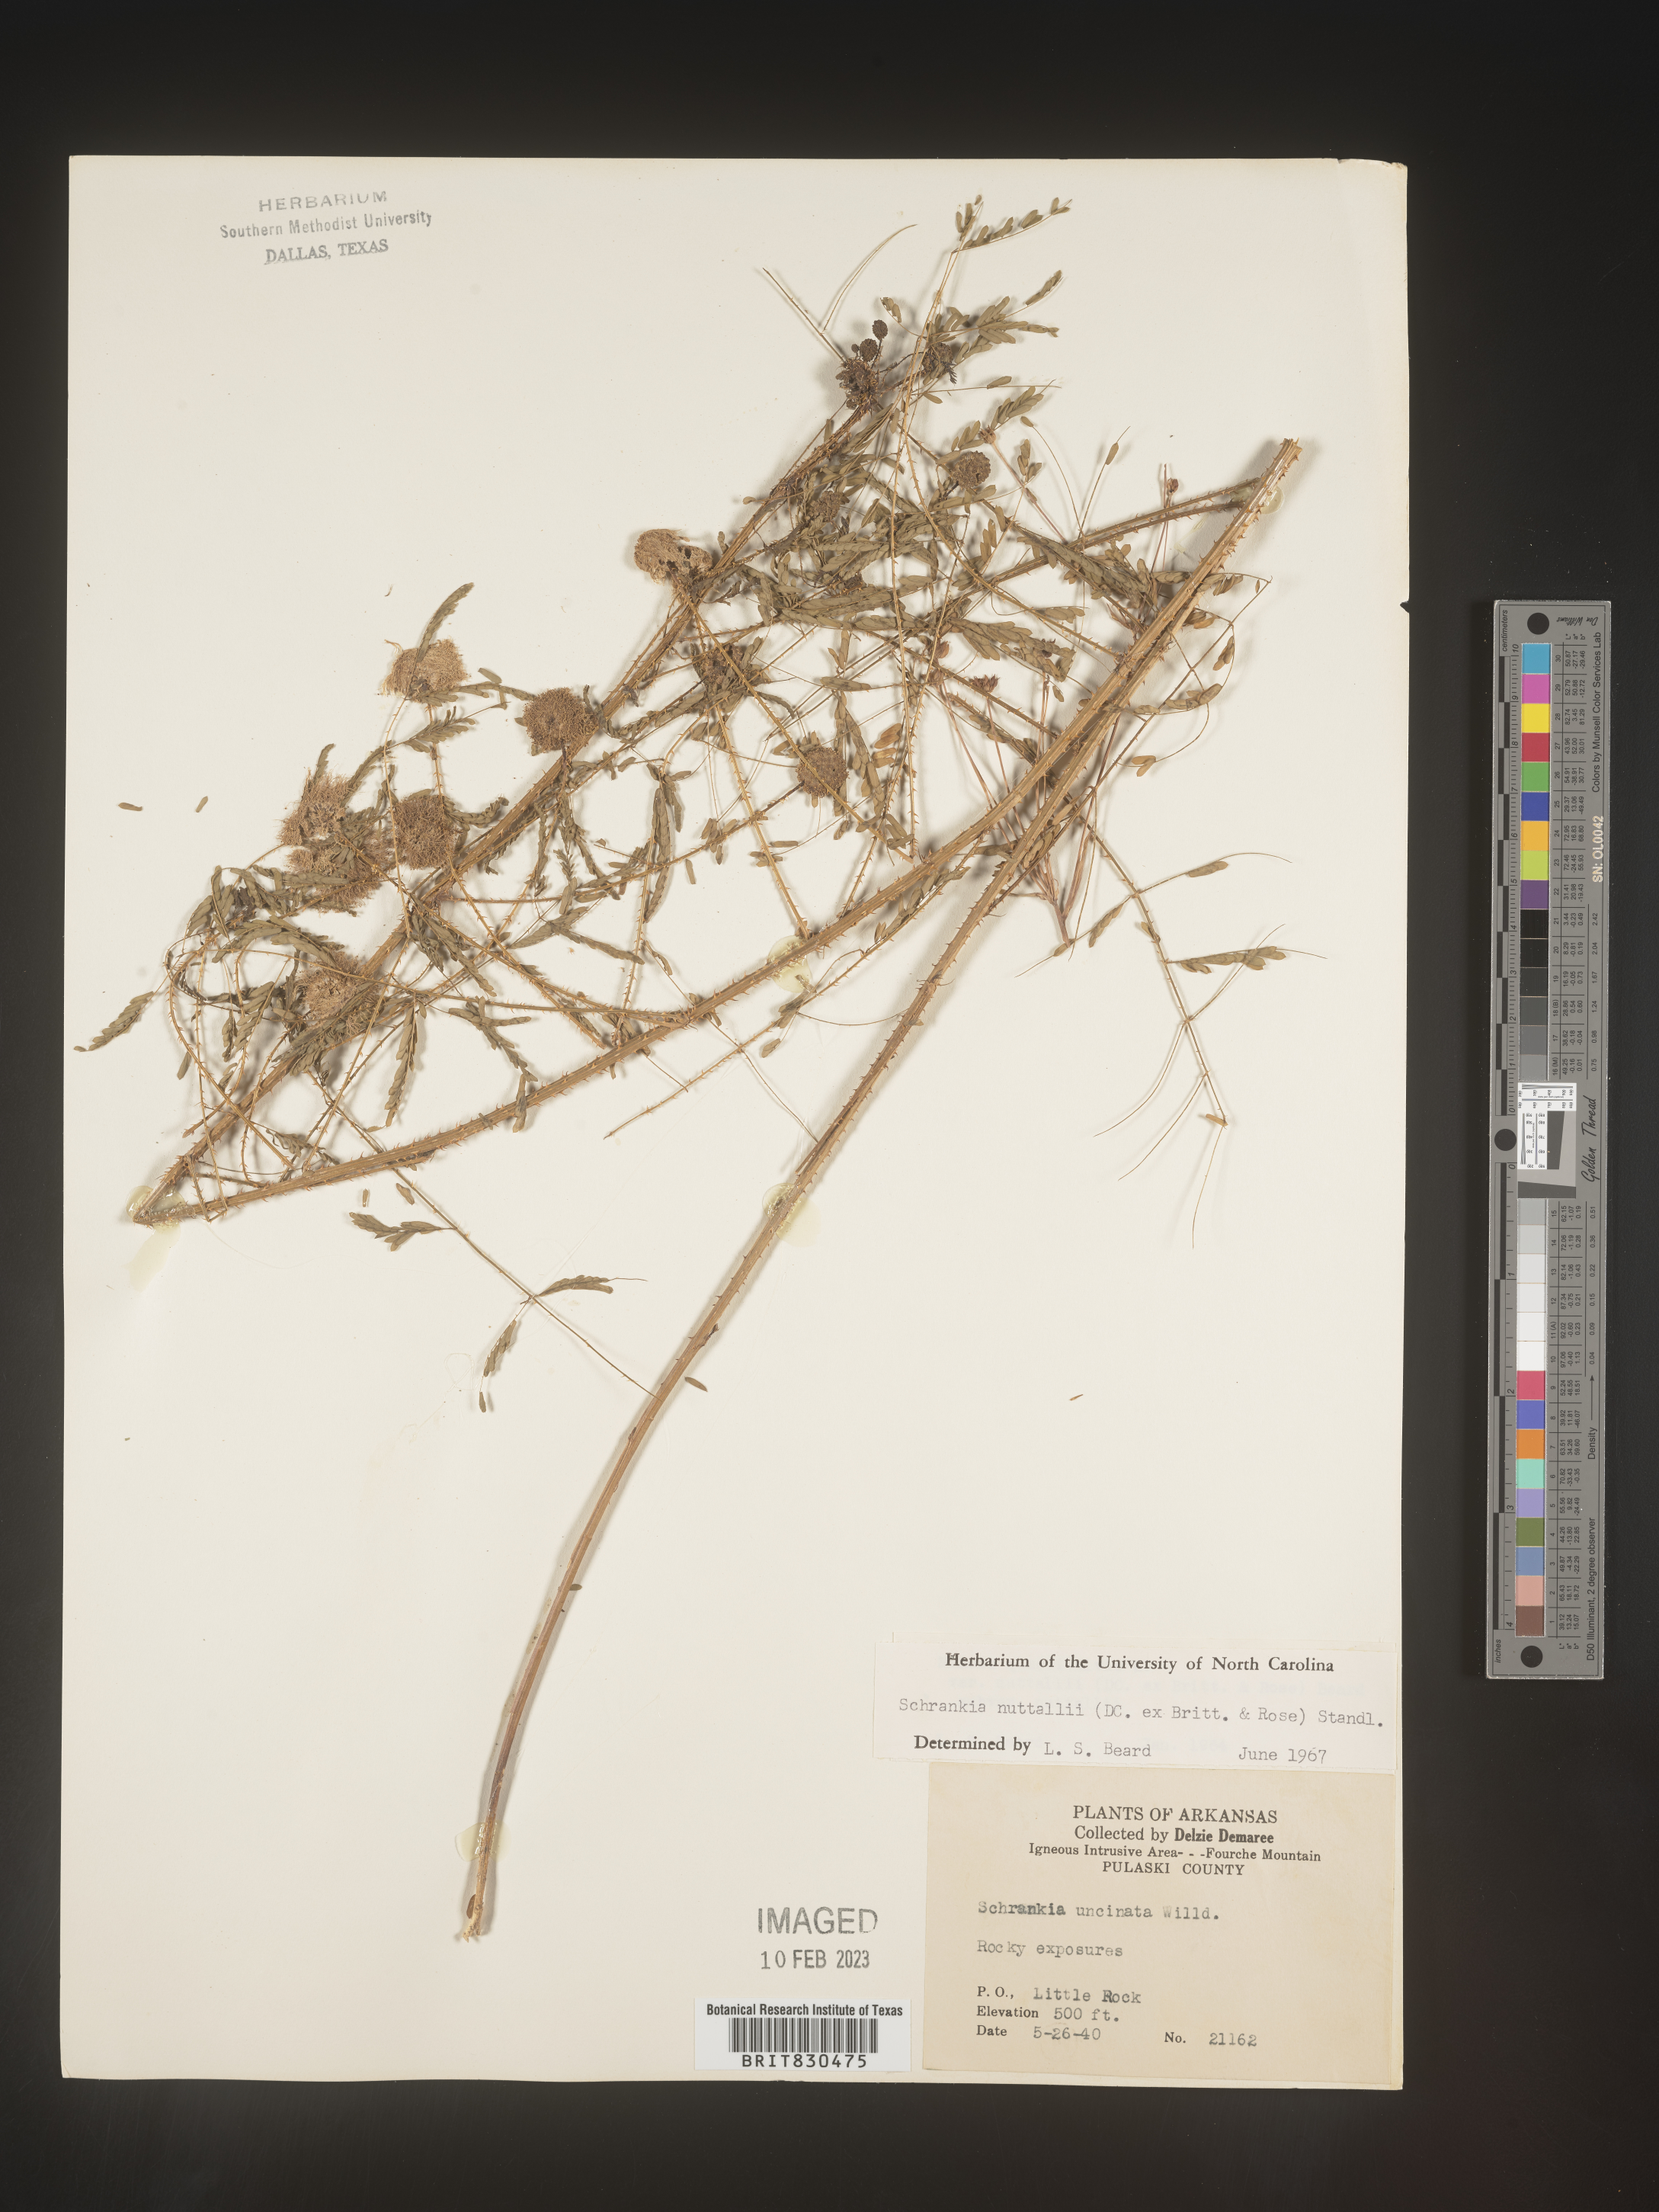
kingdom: Plantae
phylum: Tracheophyta
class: Magnoliopsida
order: Fabales
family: Fabaceae
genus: Mimosa
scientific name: Mimosa quadrivalvis
